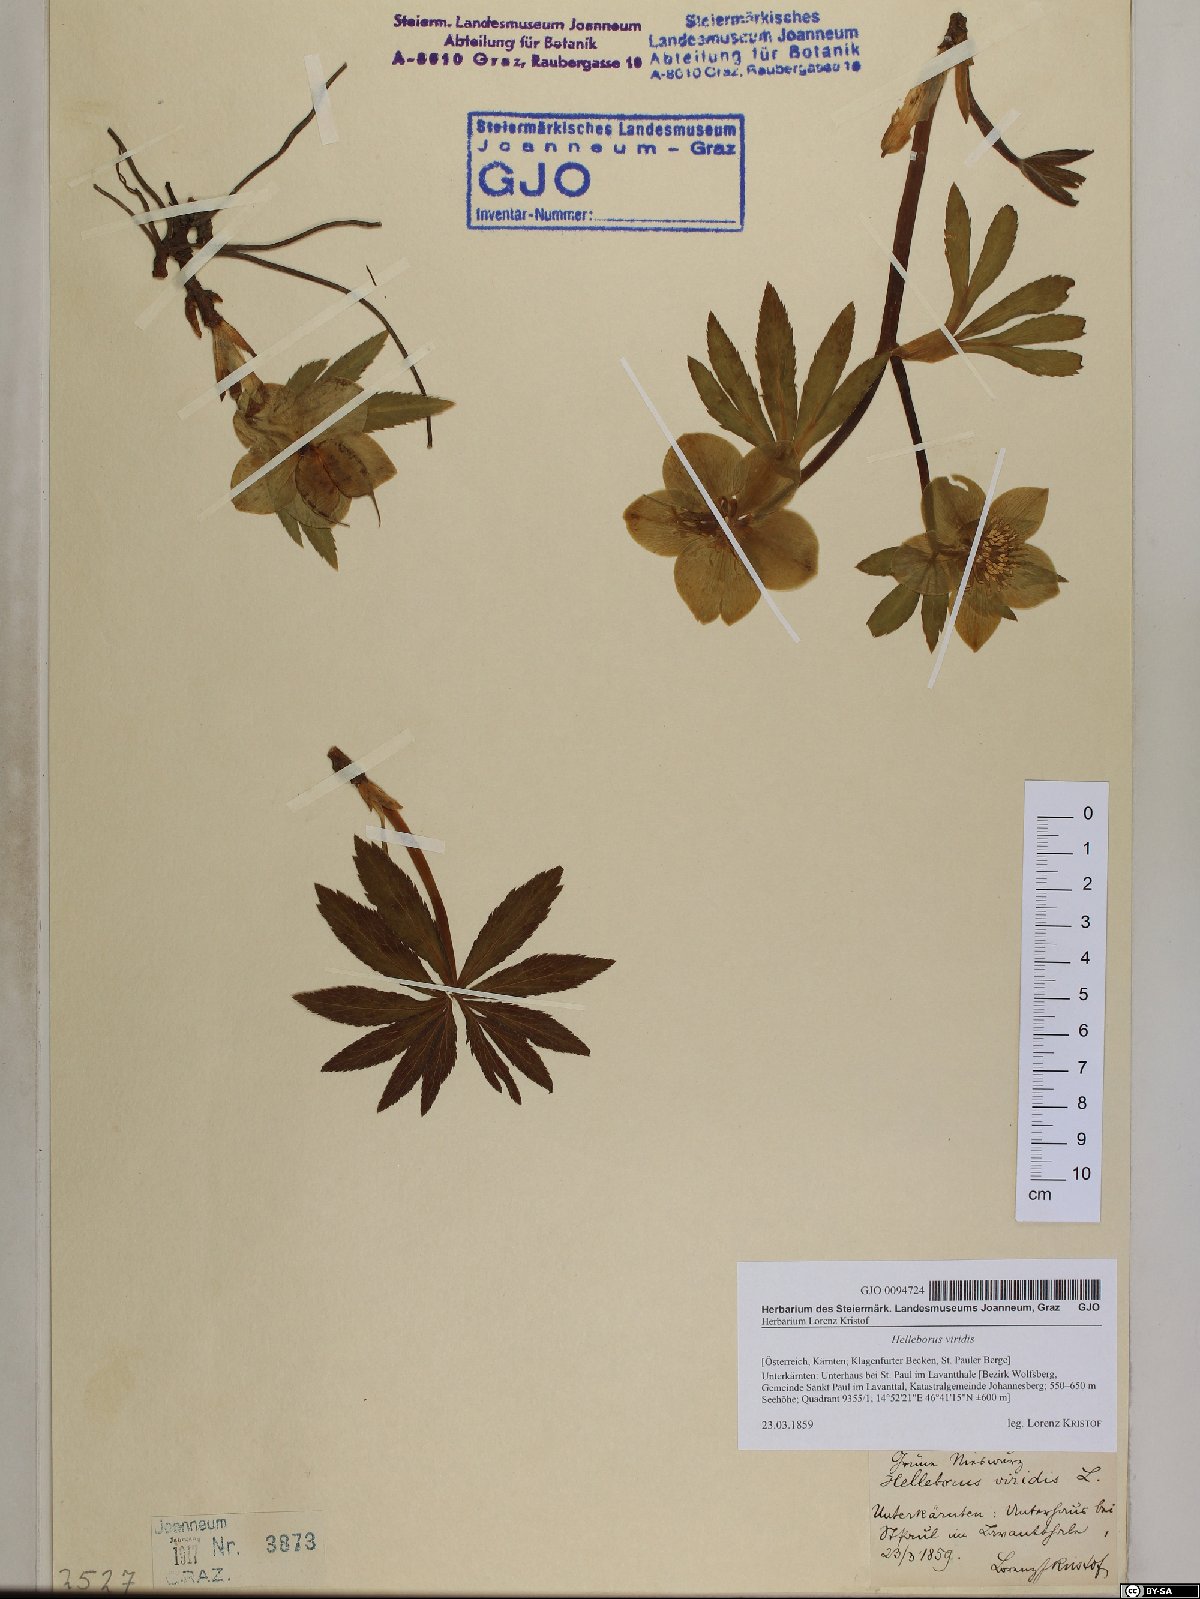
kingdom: Plantae
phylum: Tracheophyta
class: Magnoliopsida
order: Ranunculales
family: Ranunculaceae
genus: Helleborus
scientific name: Helleborus viridis
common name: Green hellebore
